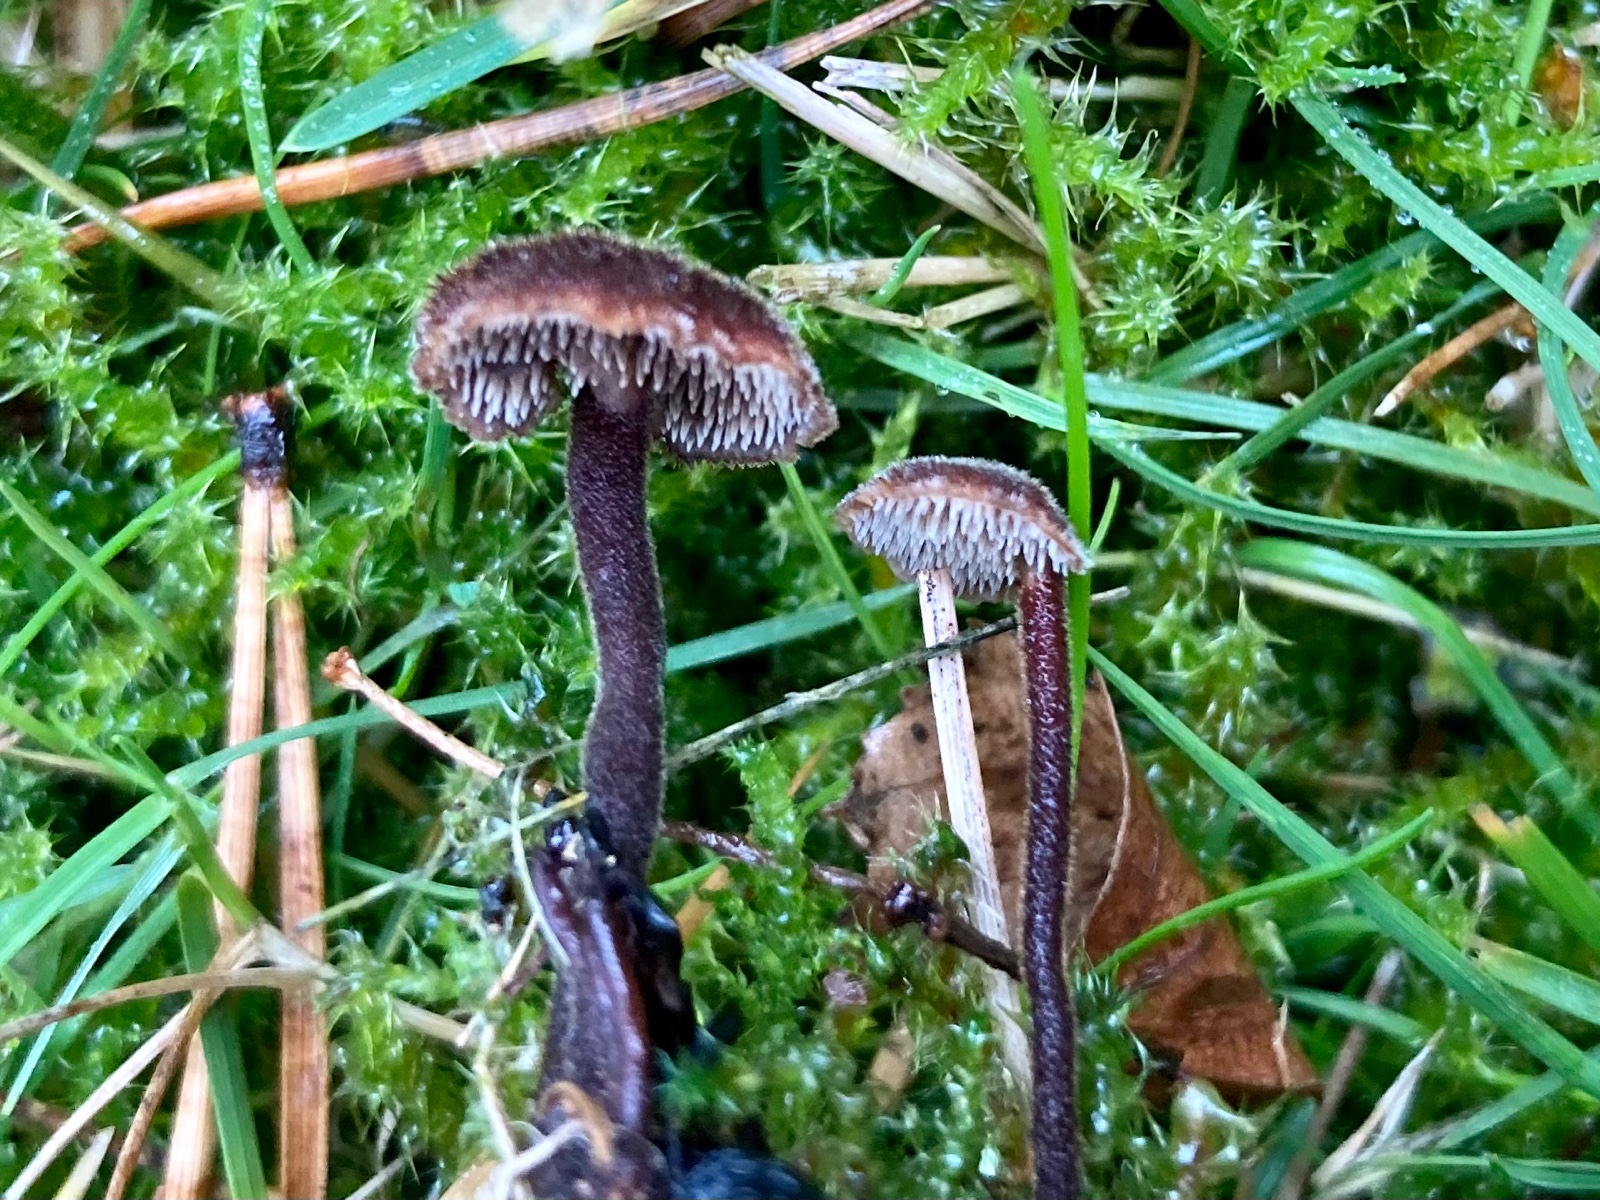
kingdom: Fungi
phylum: Basidiomycota
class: Agaricomycetes
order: Russulales
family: Auriscalpiaceae
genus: Auriscalpium
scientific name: Auriscalpium vulgare
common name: koglepigsvamp
